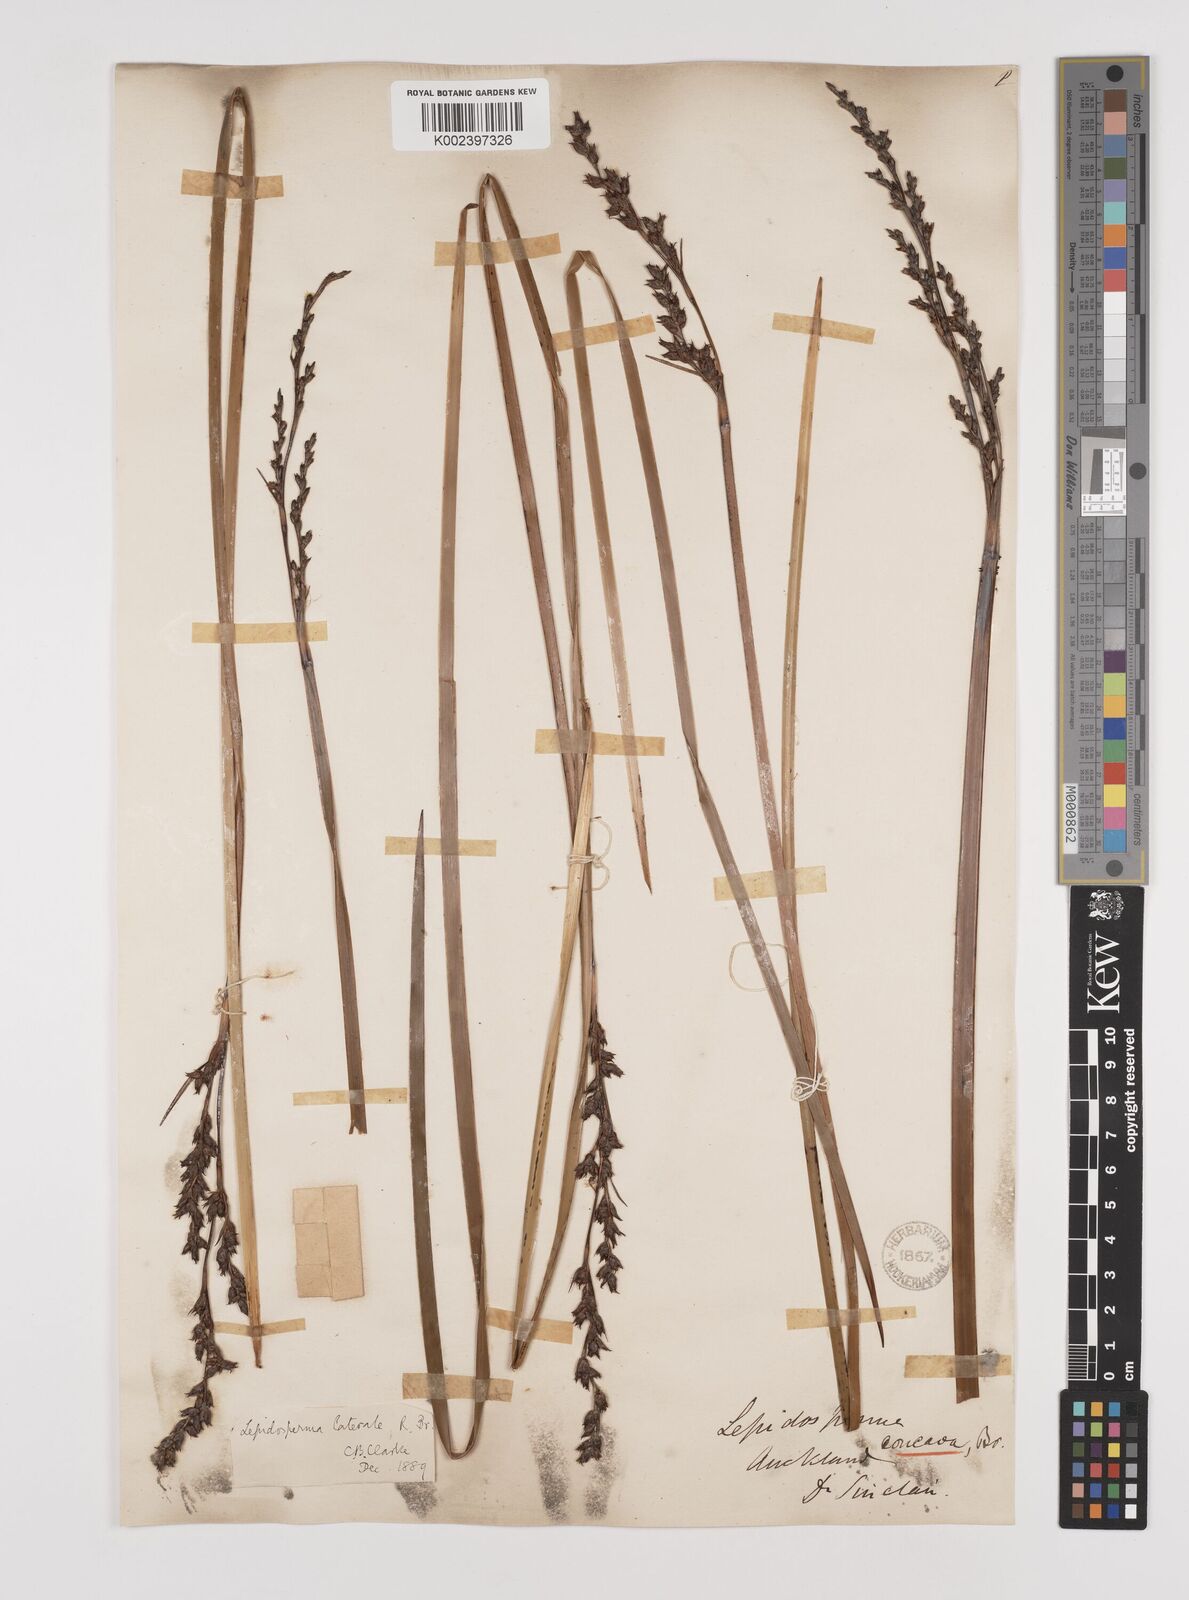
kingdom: Plantae
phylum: Tracheophyta
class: Liliopsida
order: Poales
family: Cyperaceae
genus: Lepidosperma
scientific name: Lepidosperma laterale
